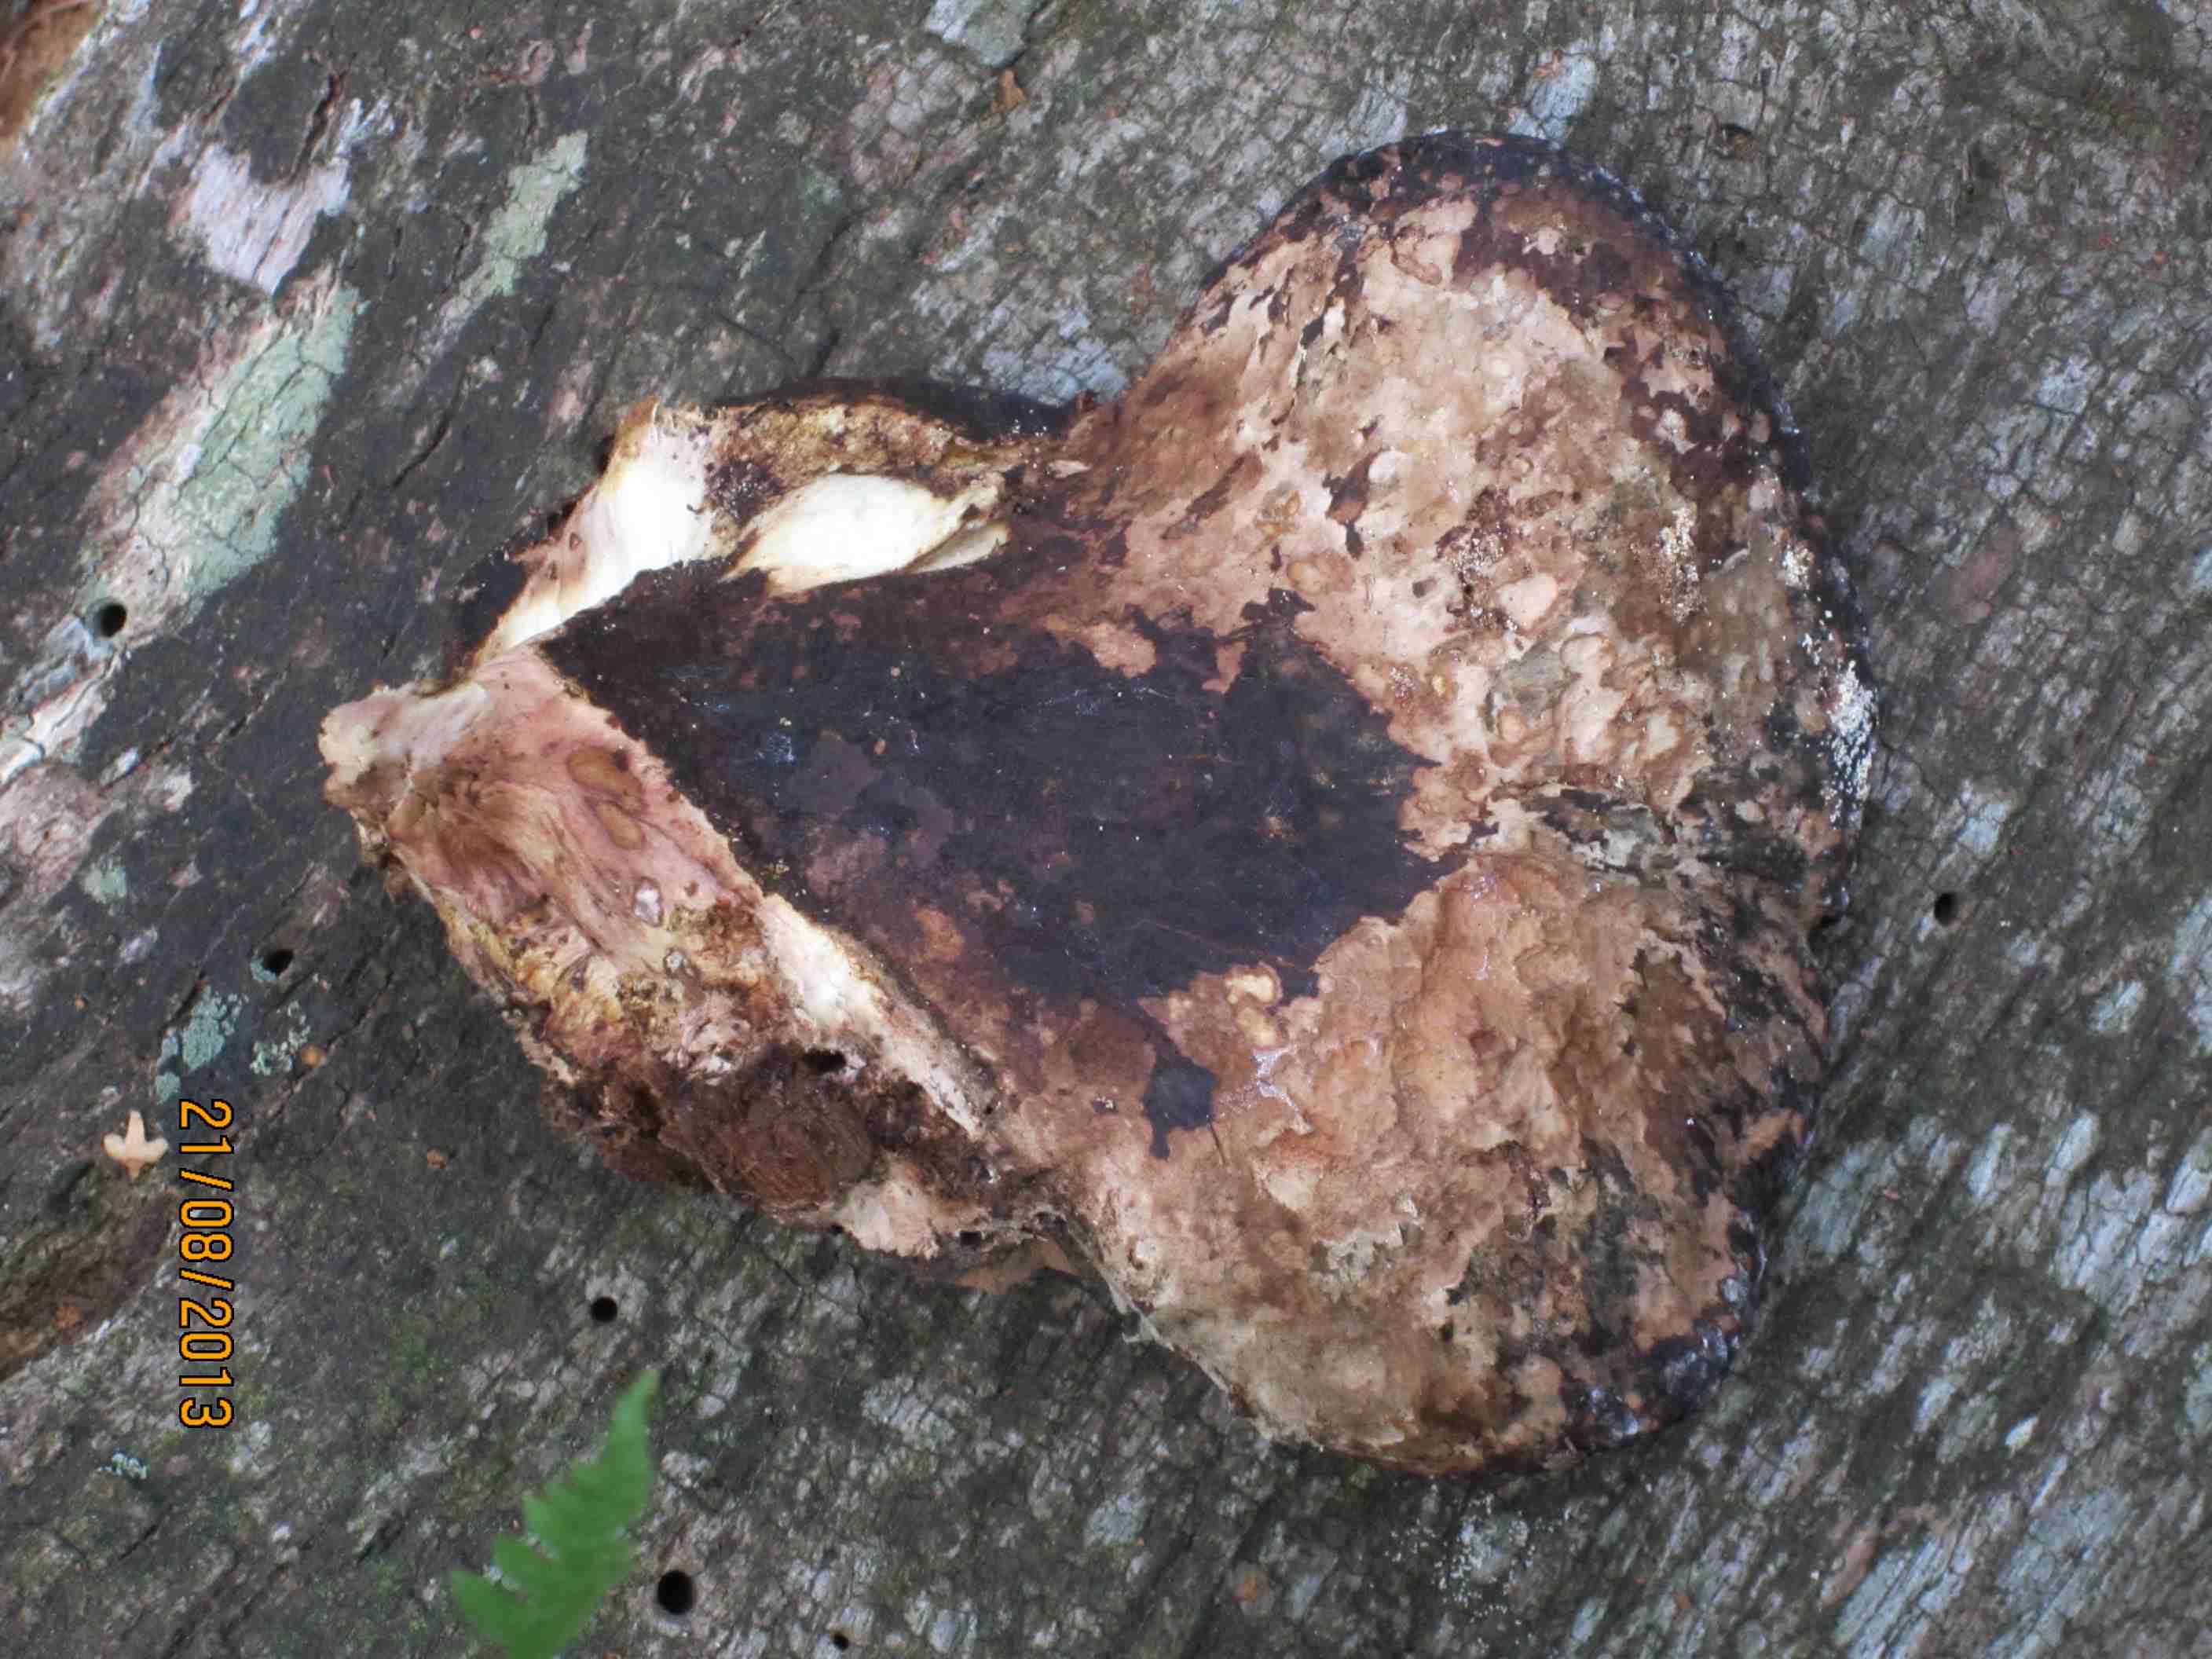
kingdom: Fungi
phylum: Basidiomycota
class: Agaricomycetes
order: Polyporales
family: Fomitopsidaceae
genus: Buglossoporus
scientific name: Buglossoporus quercinus
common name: egetunge
